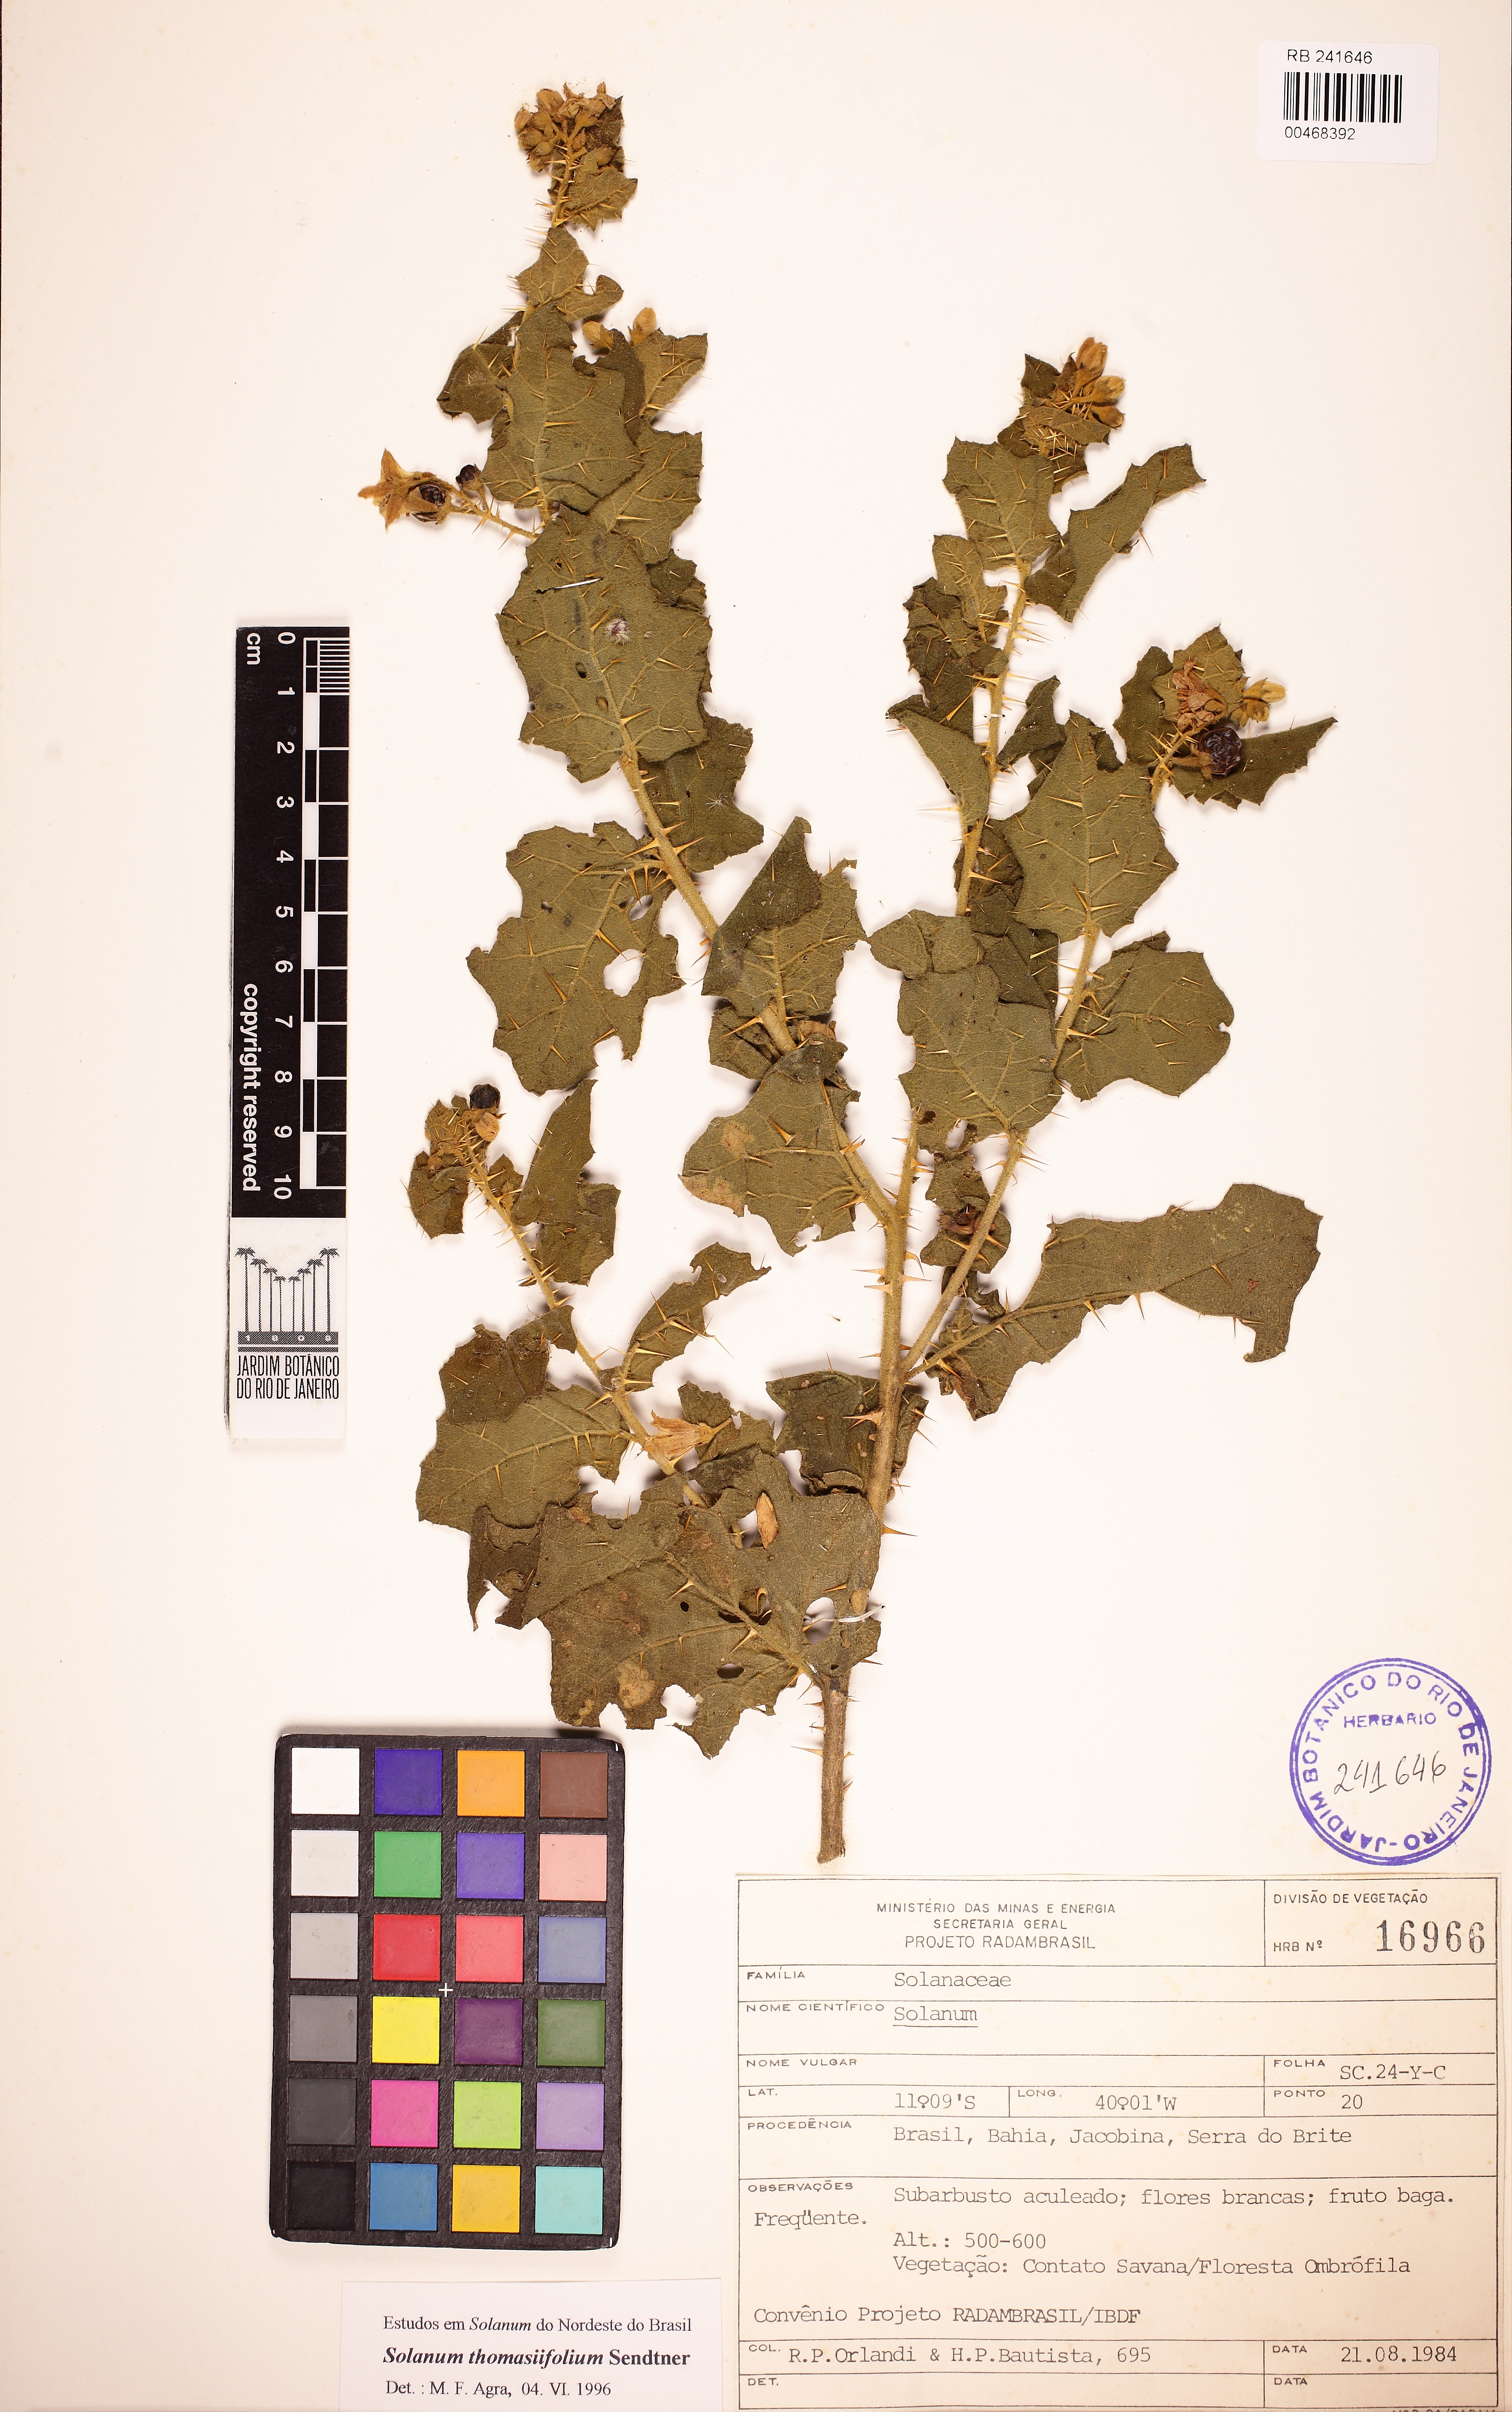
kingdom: Plantae
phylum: Tracheophyta
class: Magnoliopsida
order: Solanales
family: Solanaceae
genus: Solanum
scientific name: Solanum thomasiifolium
